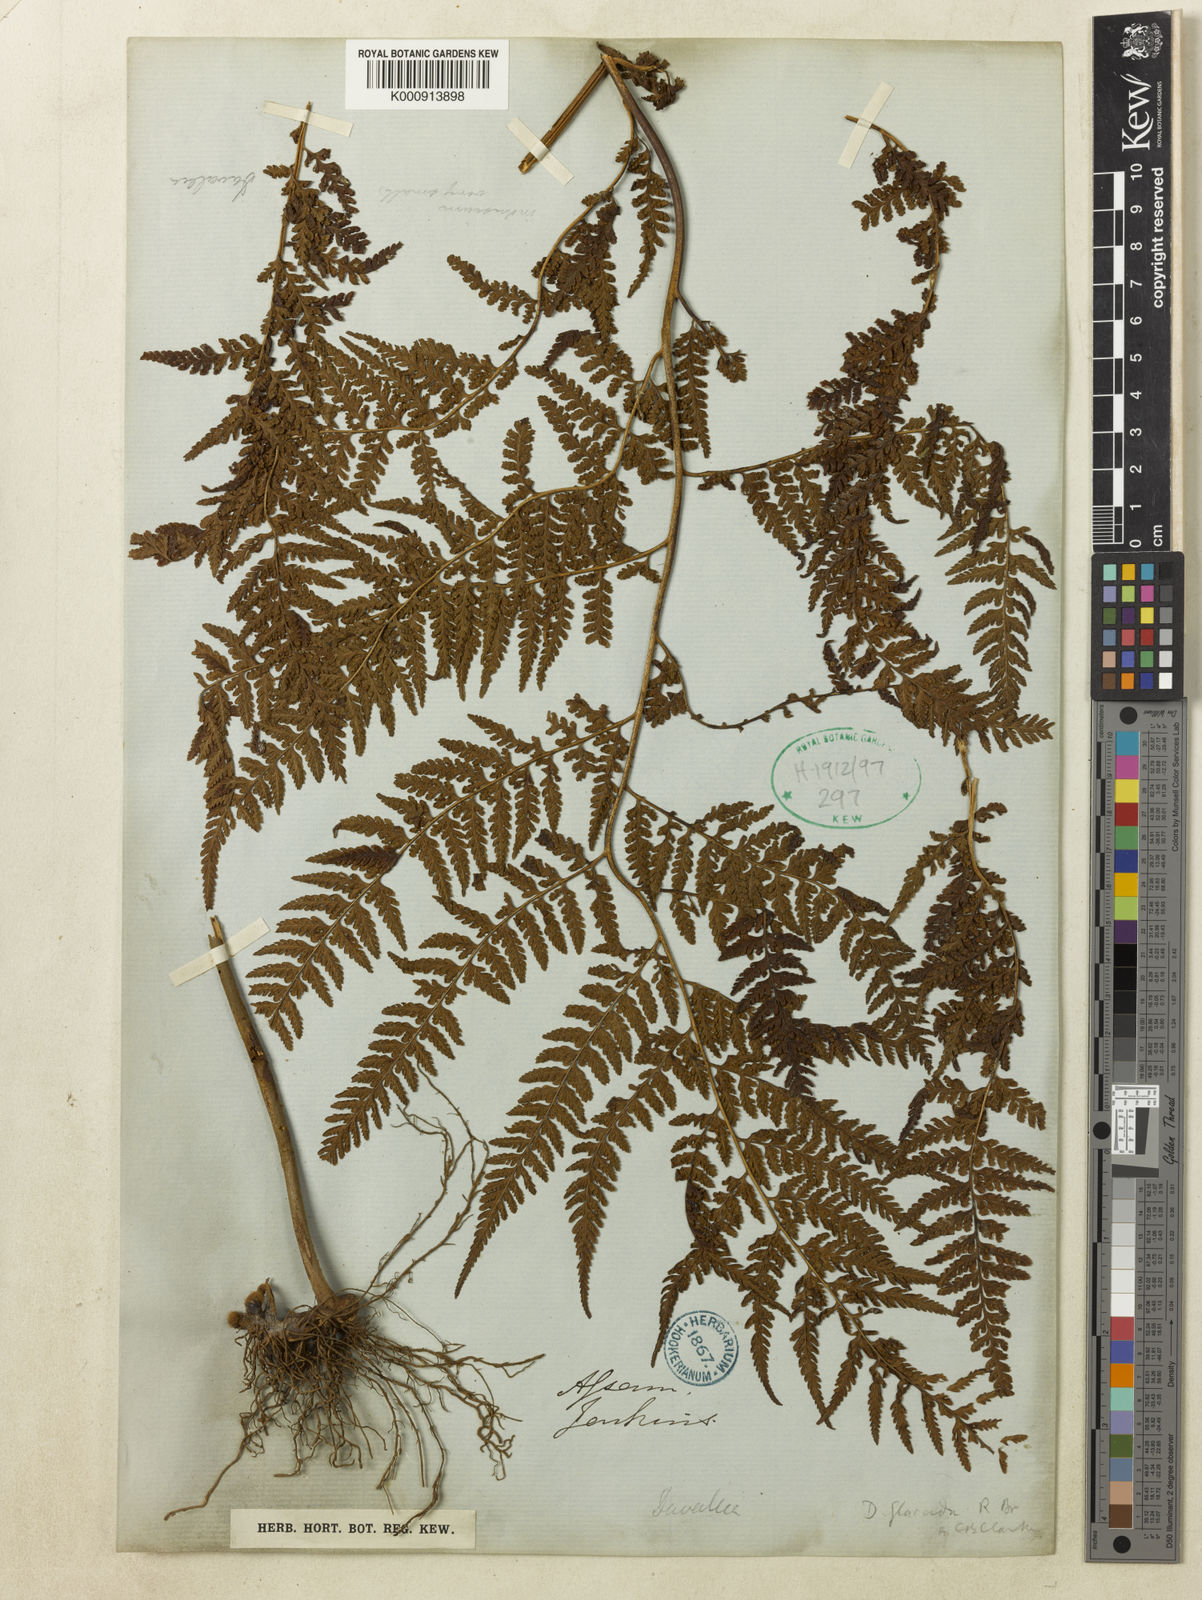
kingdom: Plantae
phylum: Tracheophyta
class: Polypodiopsida
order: Polypodiales
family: Dennstaedtiaceae
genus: Microlepia
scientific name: Microlepia rhomboidea
